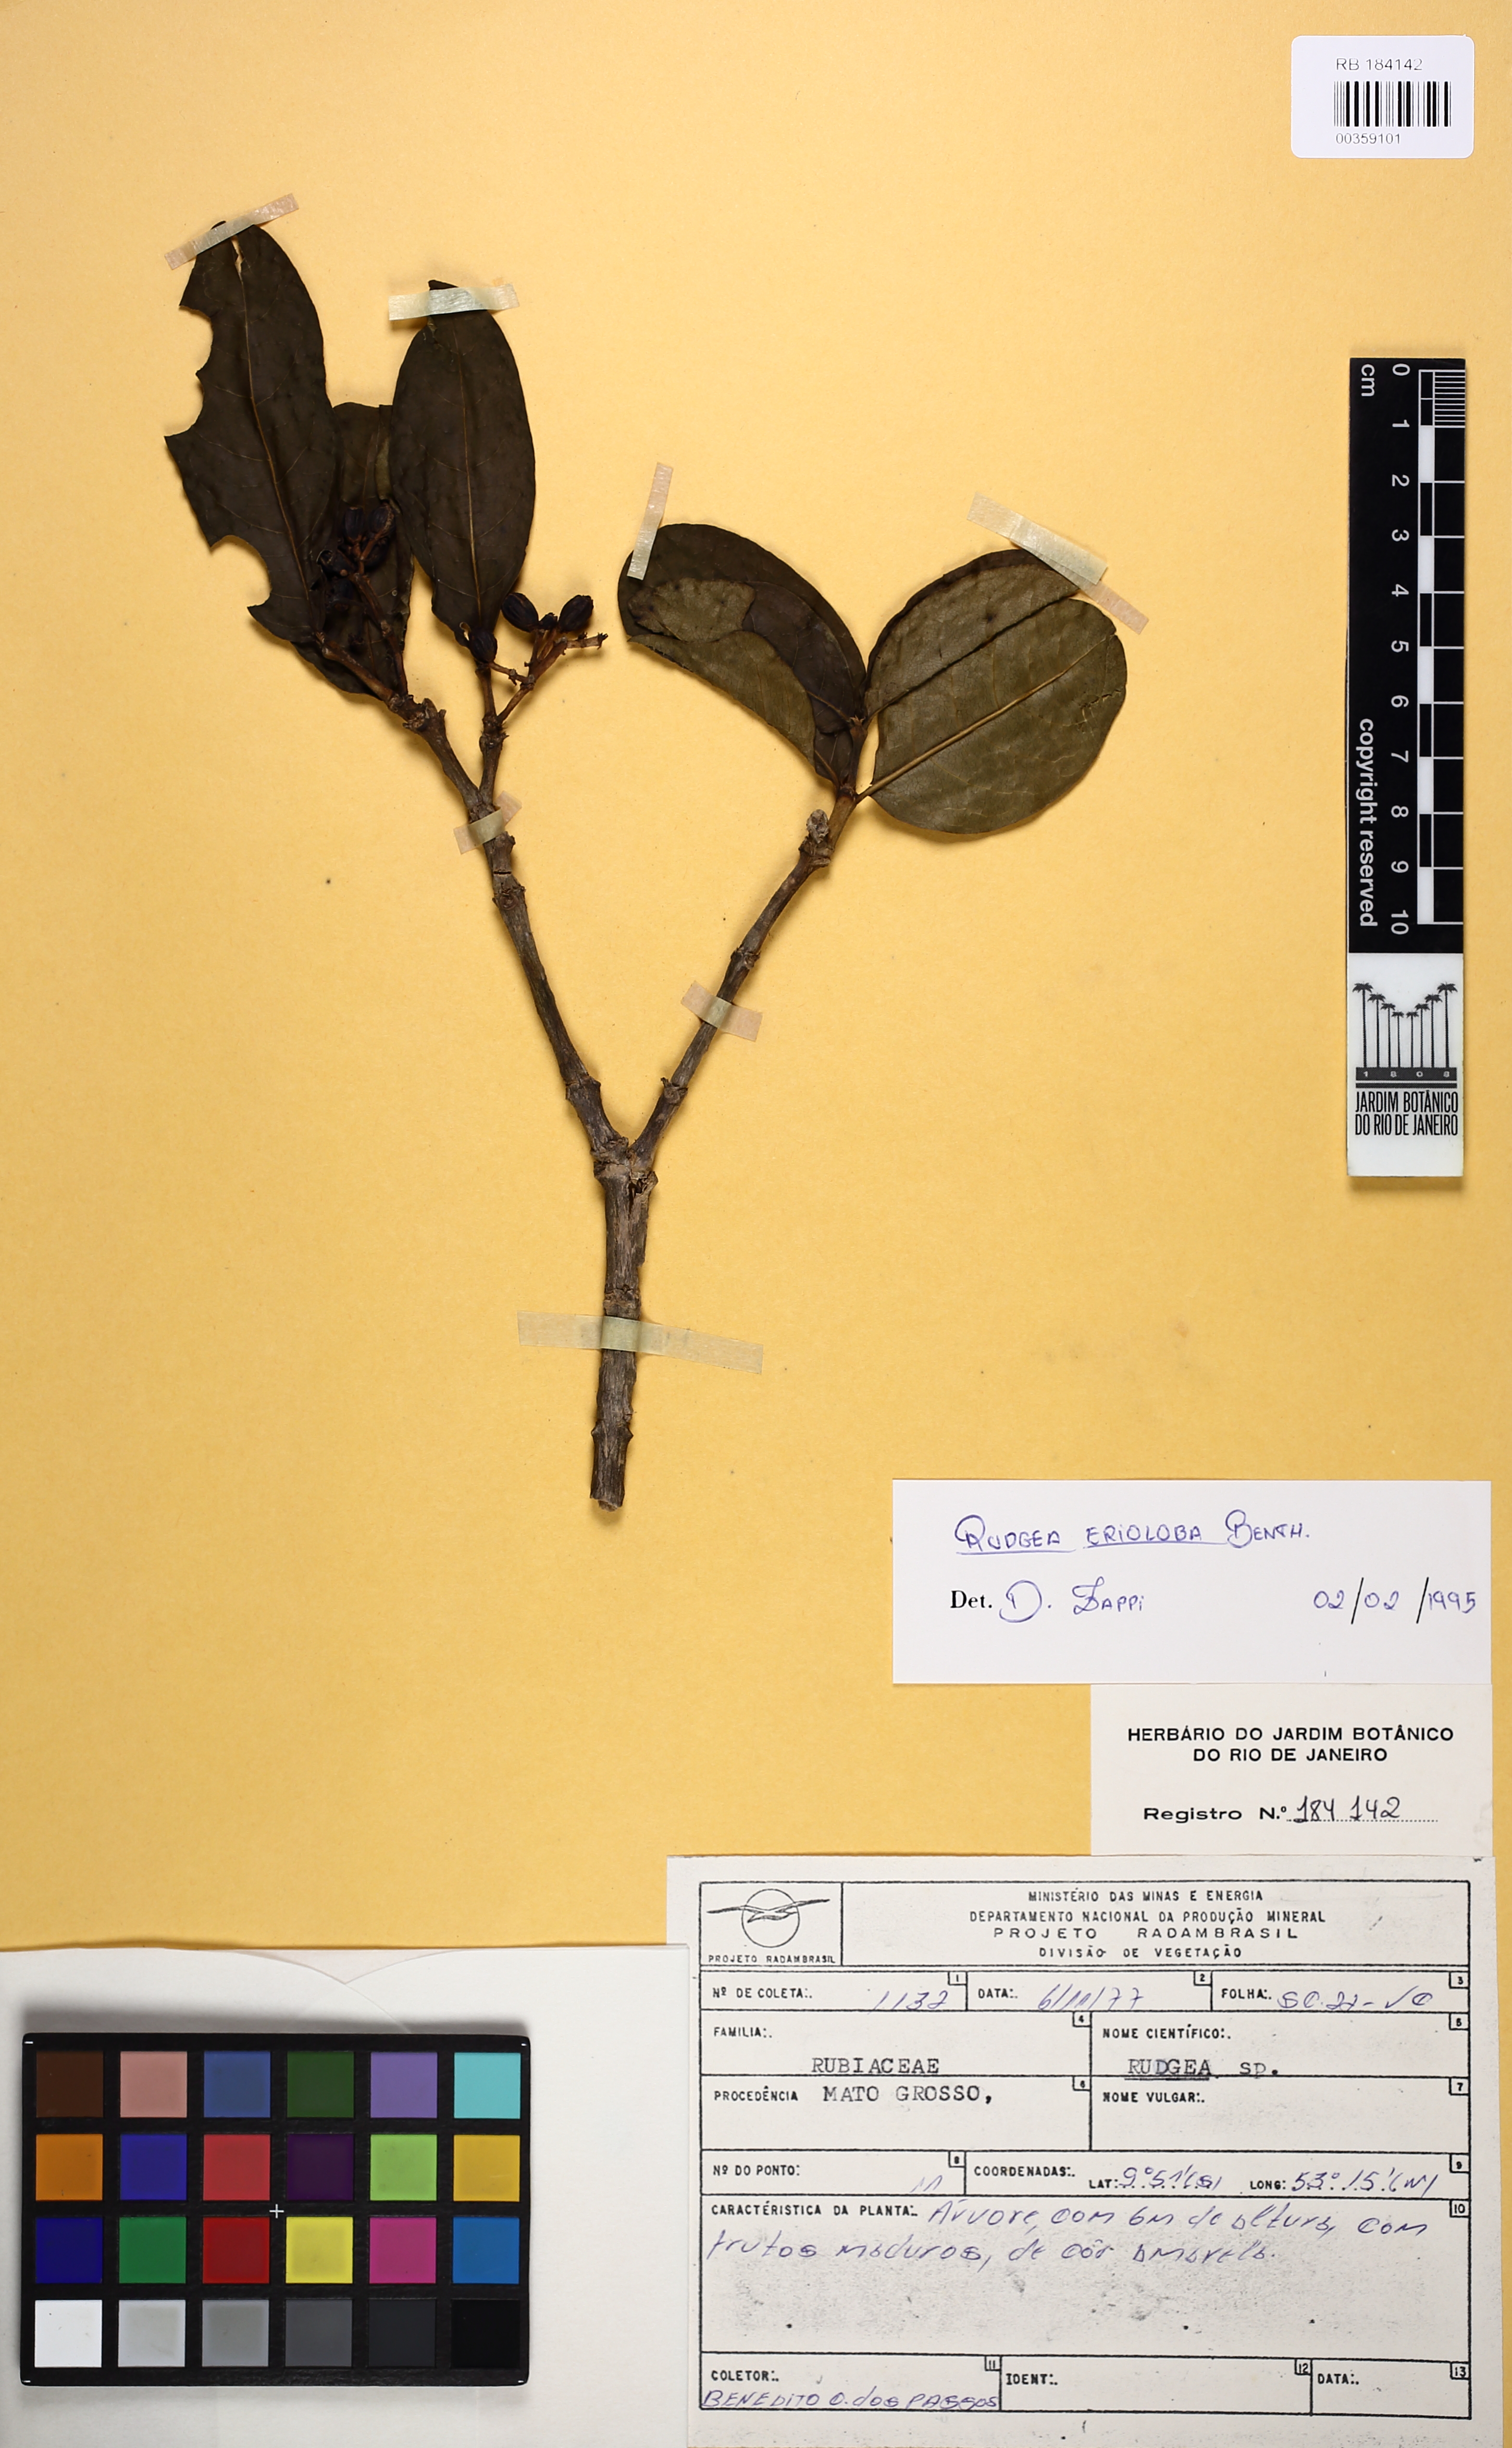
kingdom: Plantae
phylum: Tracheophyta
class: Magnoliopsida
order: Gentianales
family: Rubiaceae
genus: Rudgea
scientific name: Rudgea crassiloba
